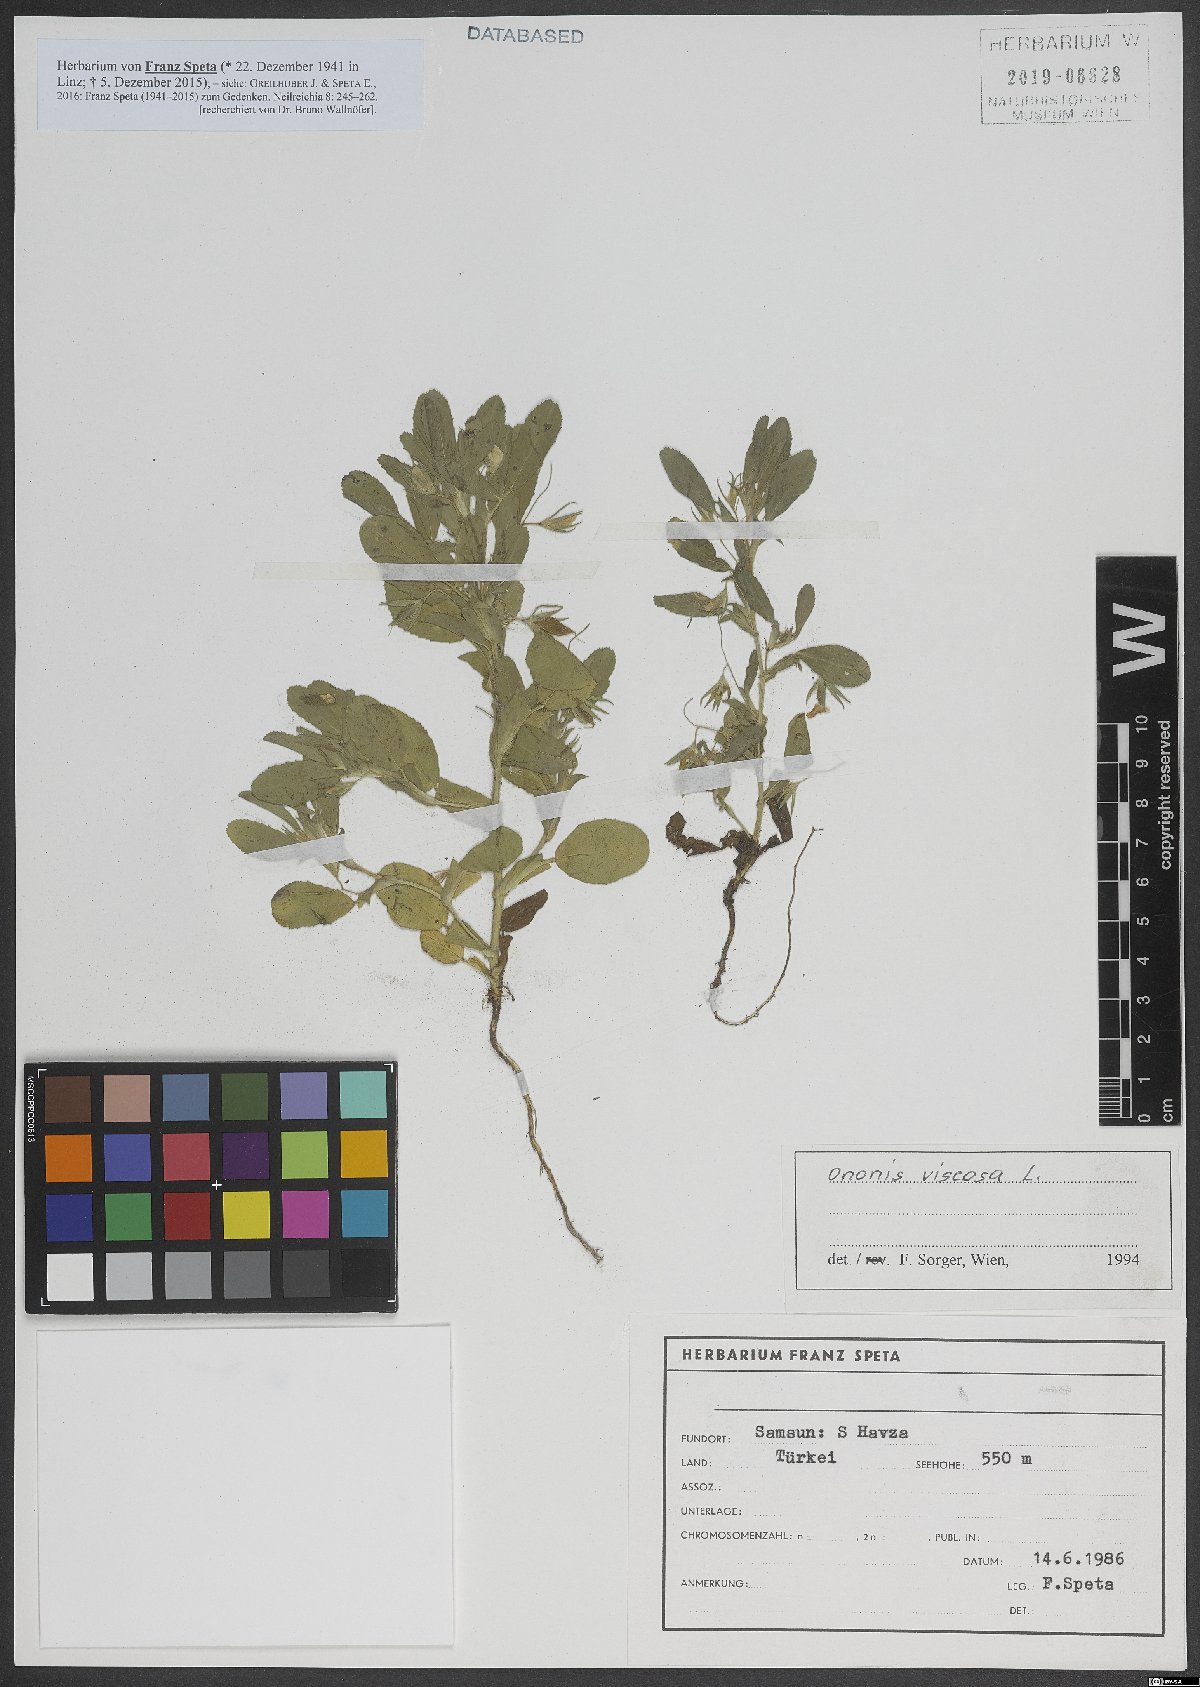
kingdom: Plantae
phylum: Tracheophyta
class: Magnoliopsida
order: Fabales
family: Fabaceae
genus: Ononis
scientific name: Ononis viscosa
